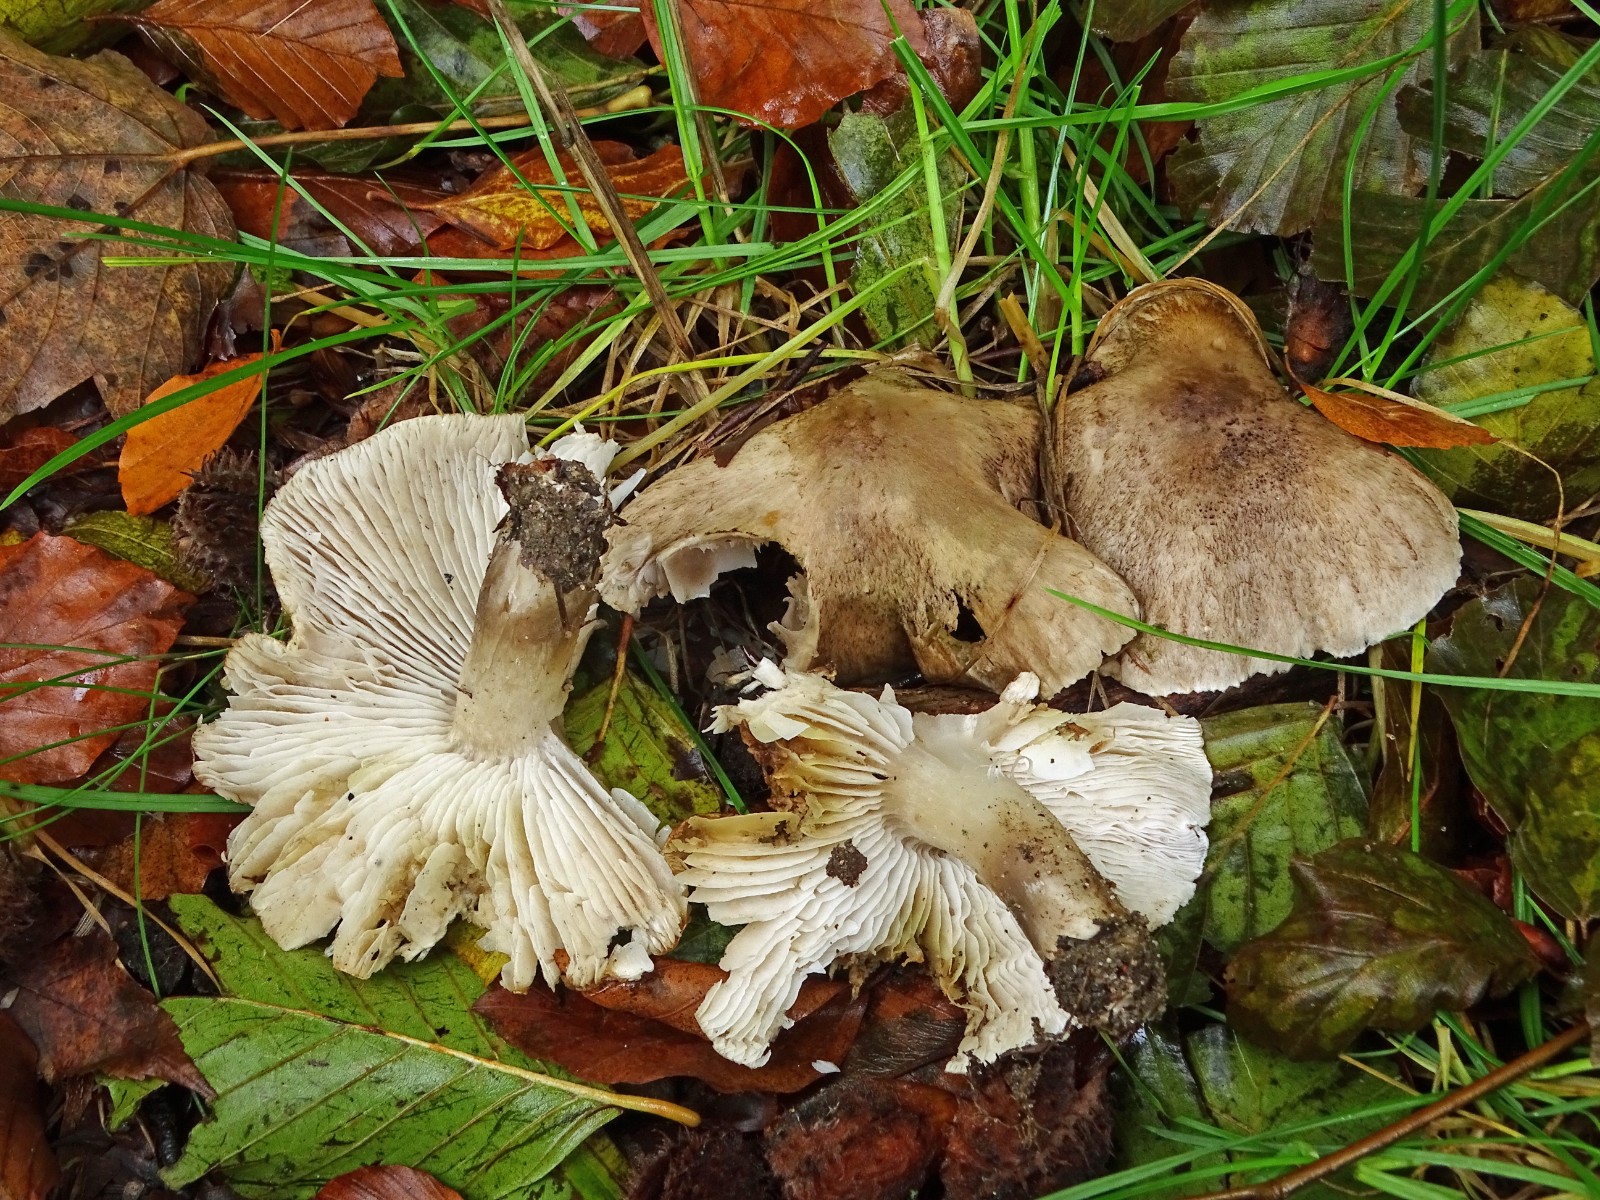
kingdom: Fungi
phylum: Basidiomycota
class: Agaricomycetes
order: Agaricales
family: Tricholomataceae
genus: Tricholoma
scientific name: Tricholoma scalpturatum
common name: gulplettet ridderhat
